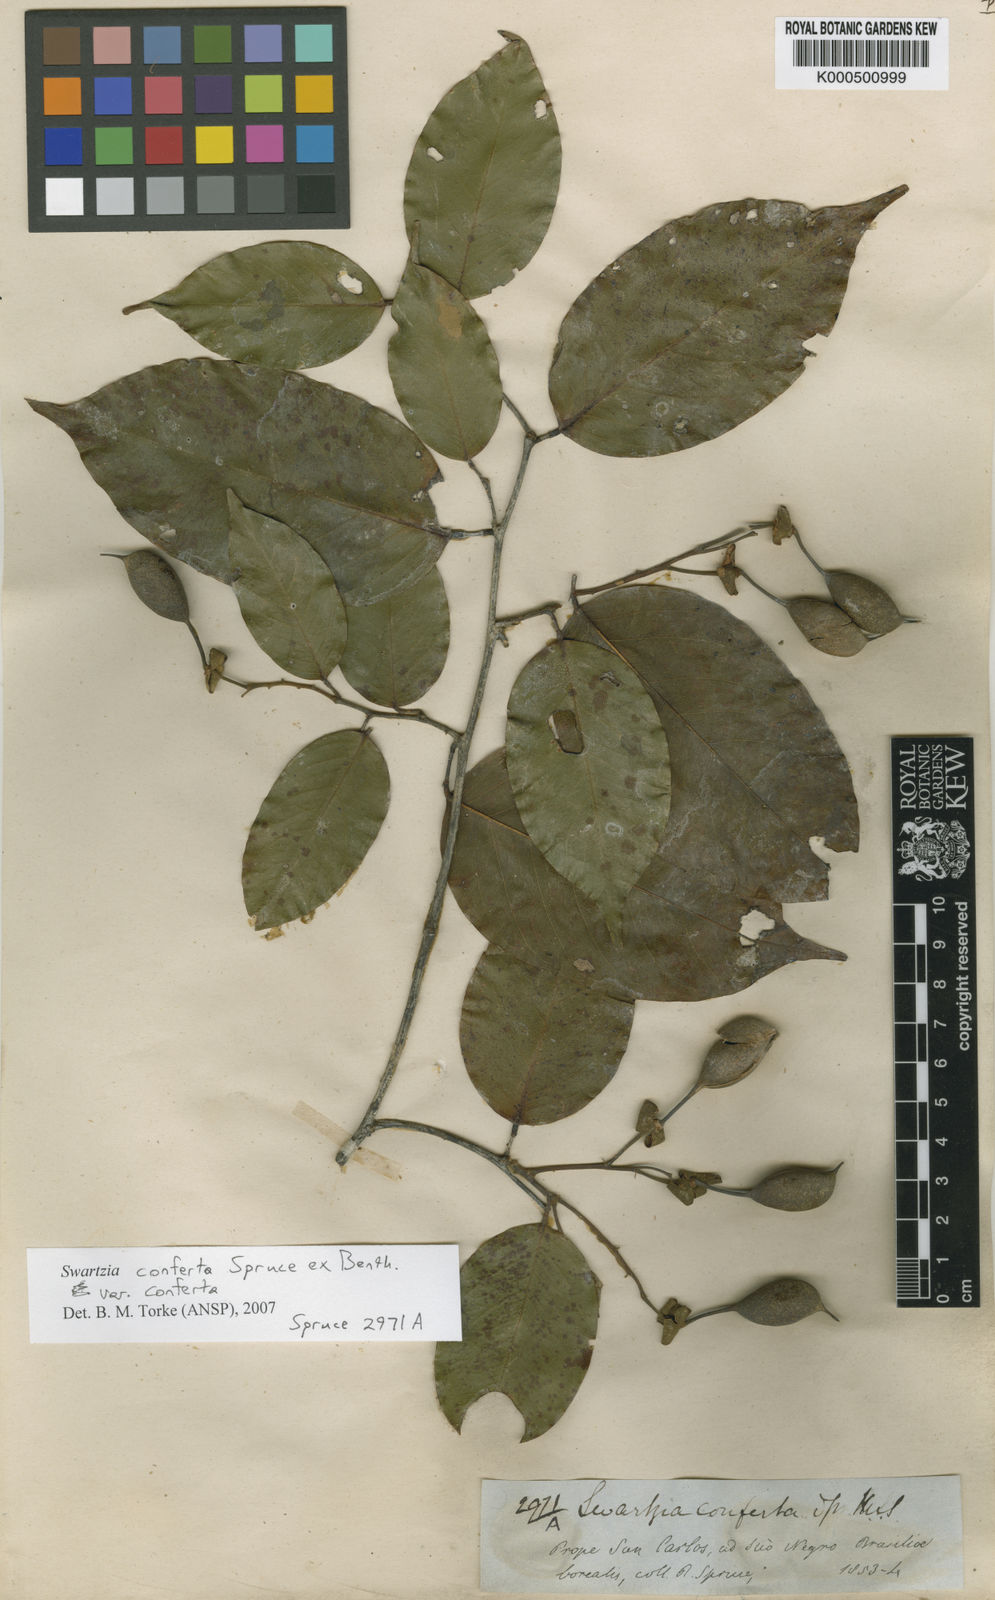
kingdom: Plantae
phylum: Tracheophyta
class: Magnoliopsida
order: Fabales
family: Fabaceae
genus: Swartzia
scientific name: Swartzia conferta
